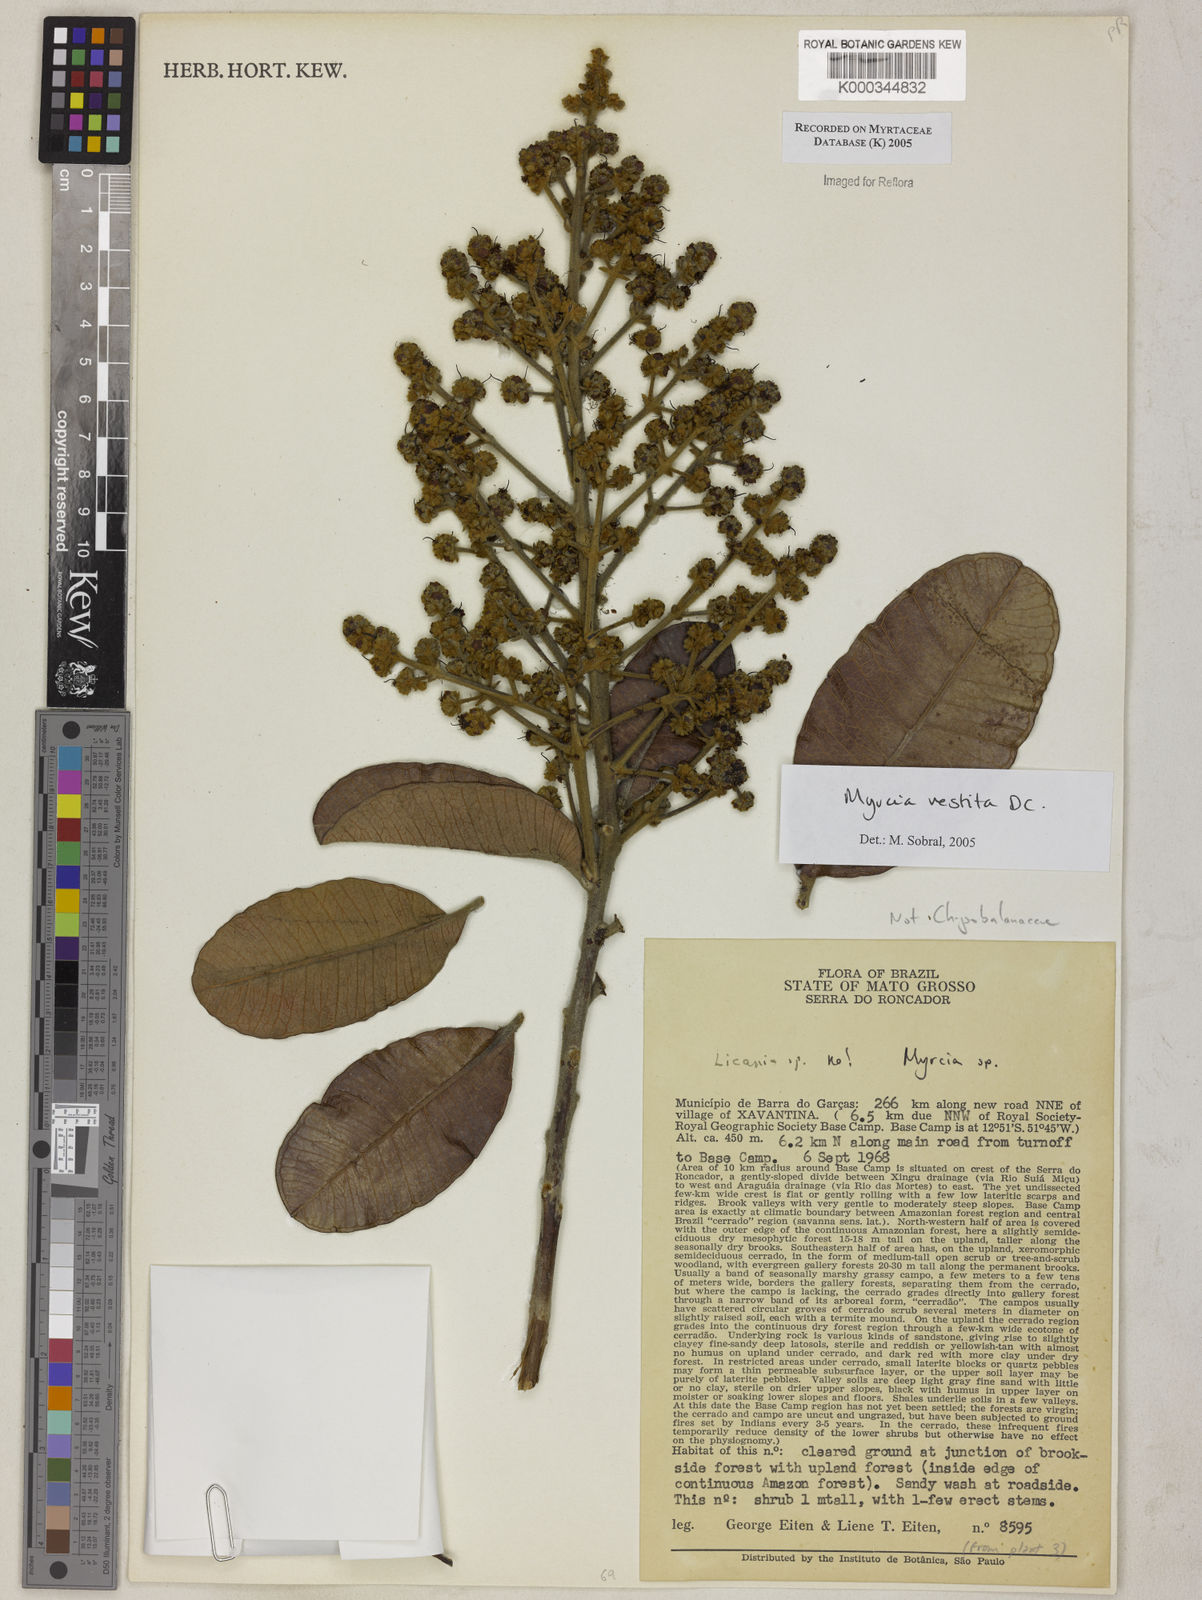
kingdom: Plantae
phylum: Tracheophyta
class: Magnoliopsida
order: Myrtales
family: Myrtaceae
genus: Myrcia
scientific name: Myrcia vestita
